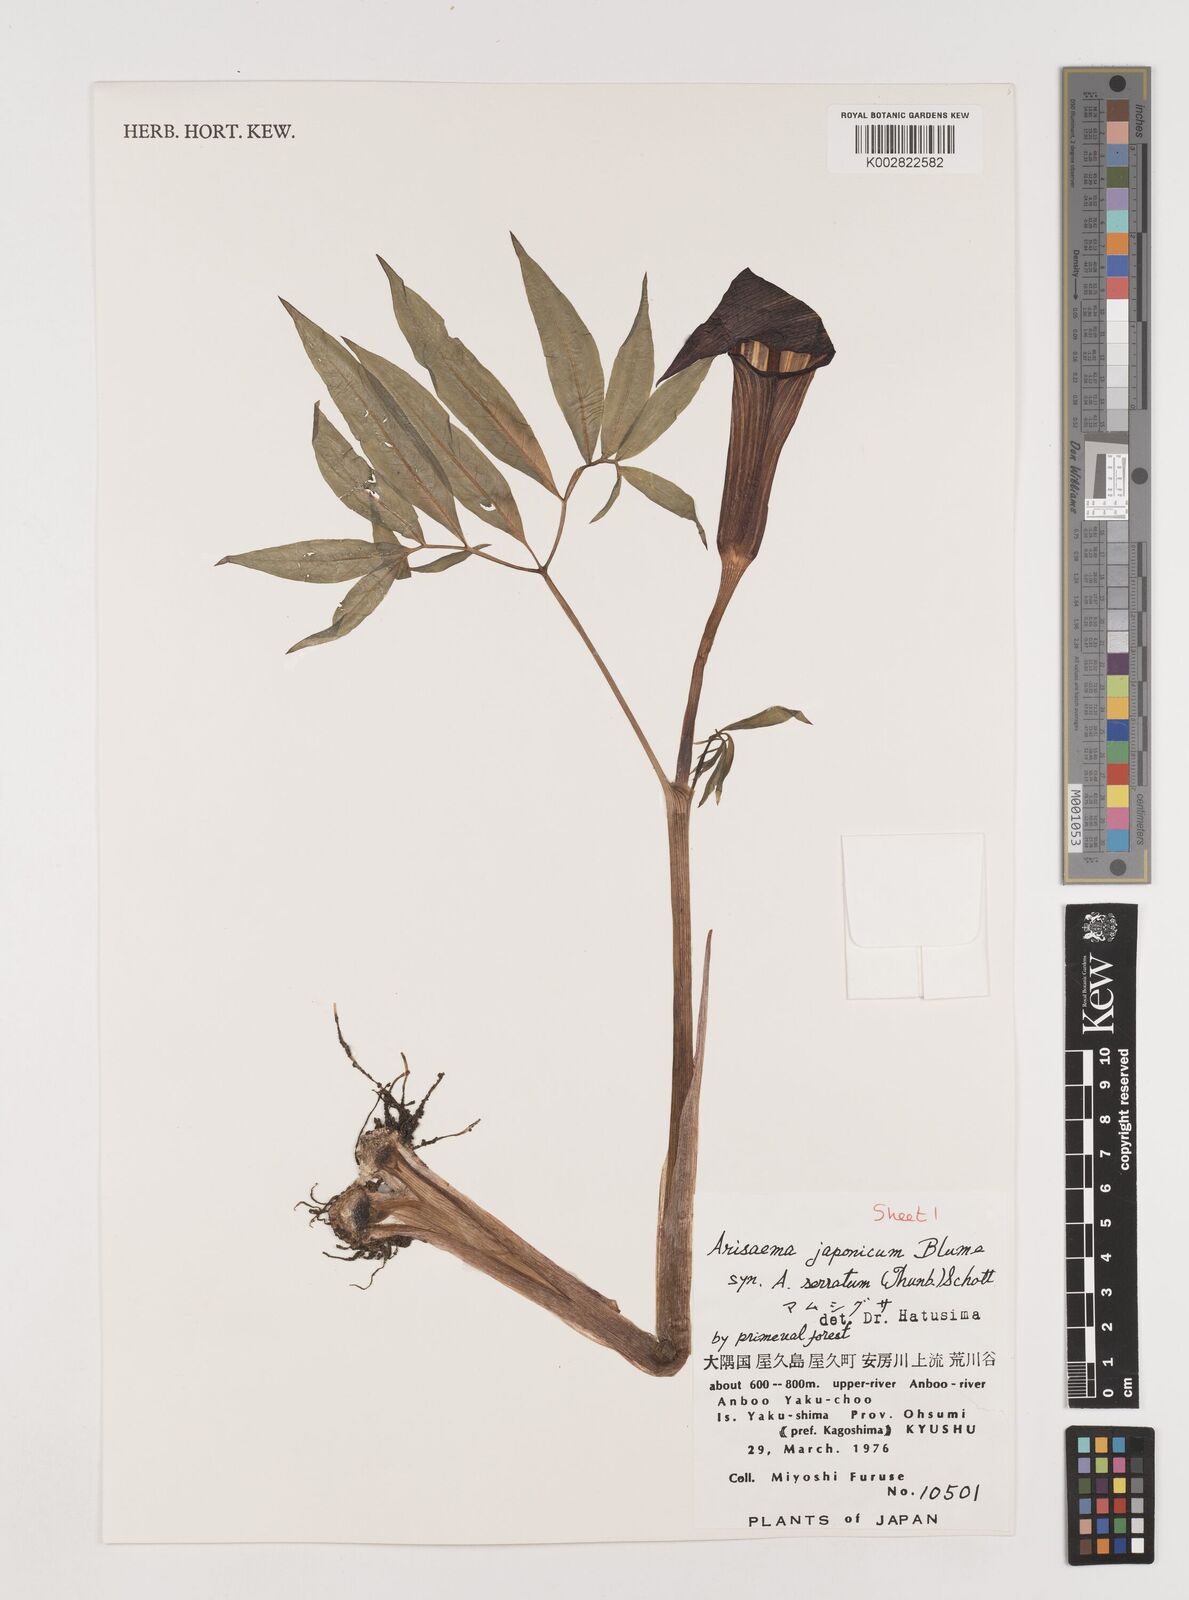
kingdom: Plantae
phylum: Tracheophyta
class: Liliopsida
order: Alismatales
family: Araceae
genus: Arisaema
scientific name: Arisaema serratum
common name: Japanese arisaema
